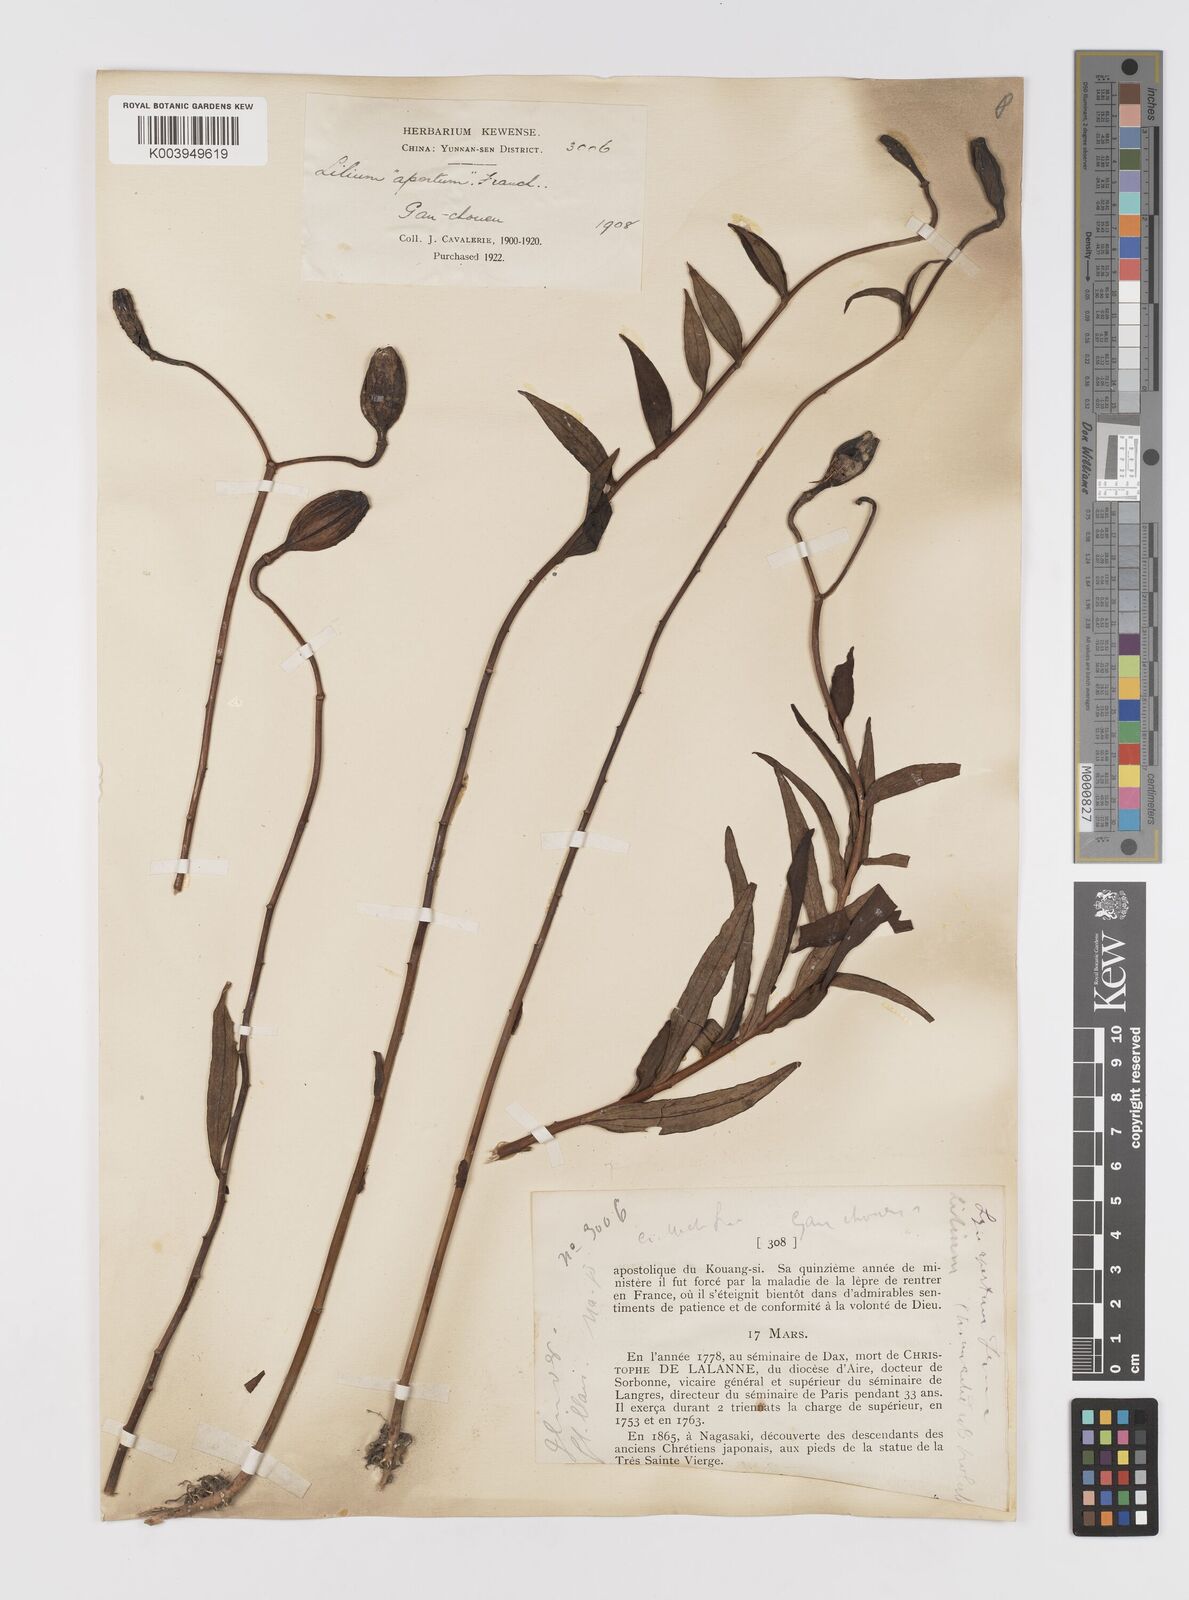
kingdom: Plantae
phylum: Tracheophyta
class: Liliopsida
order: Liliales
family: Liliaceae
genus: Lilium
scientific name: Lilium
